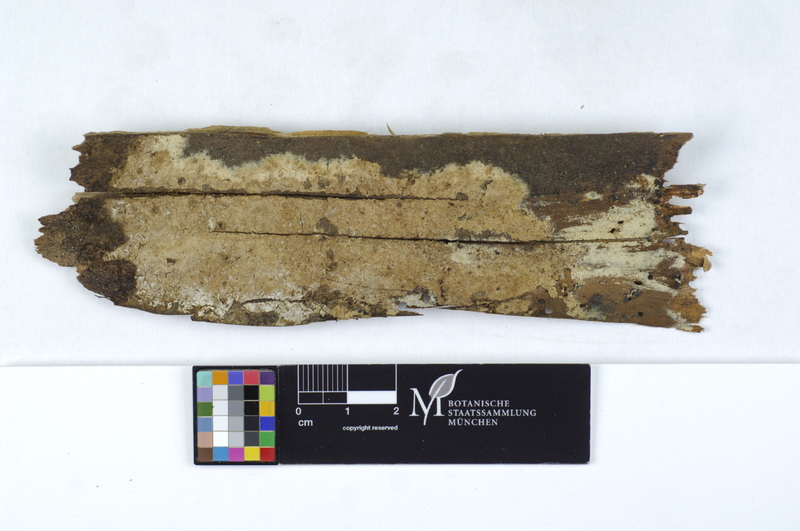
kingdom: Plantae
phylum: Tracheophyta
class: Pinopsida
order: Pinales
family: Pinaceae
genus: Picea
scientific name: Picea
